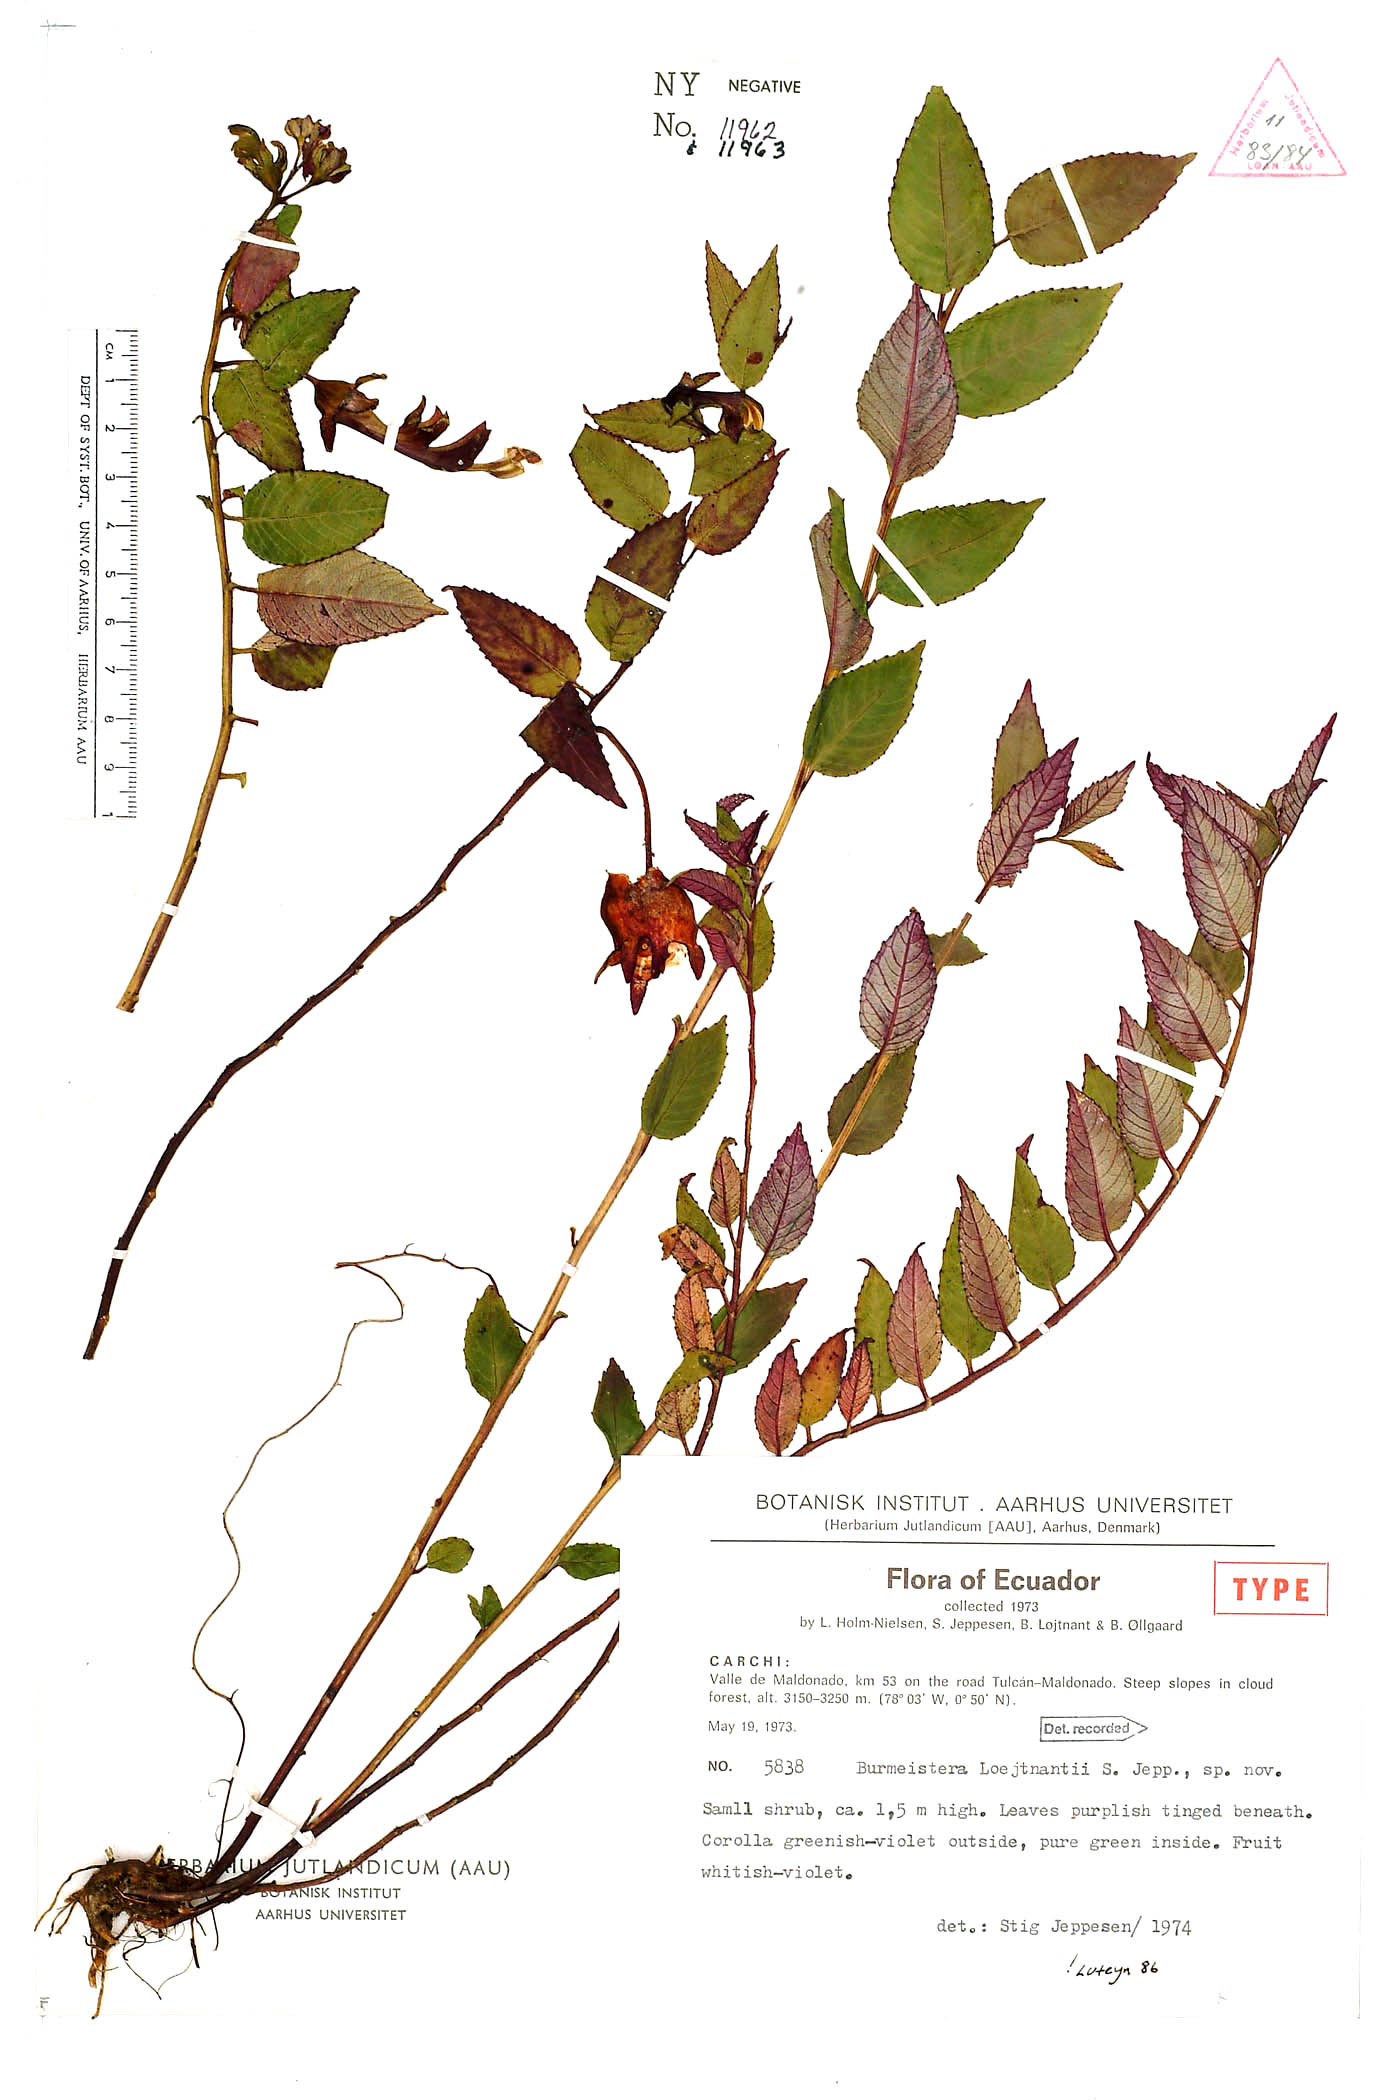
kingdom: Plantae
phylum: Tracheophyta
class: Magnoliopsida
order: Asterales
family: Campanulaceae
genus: Burmeistera
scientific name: Burmeistera loejtnantii
